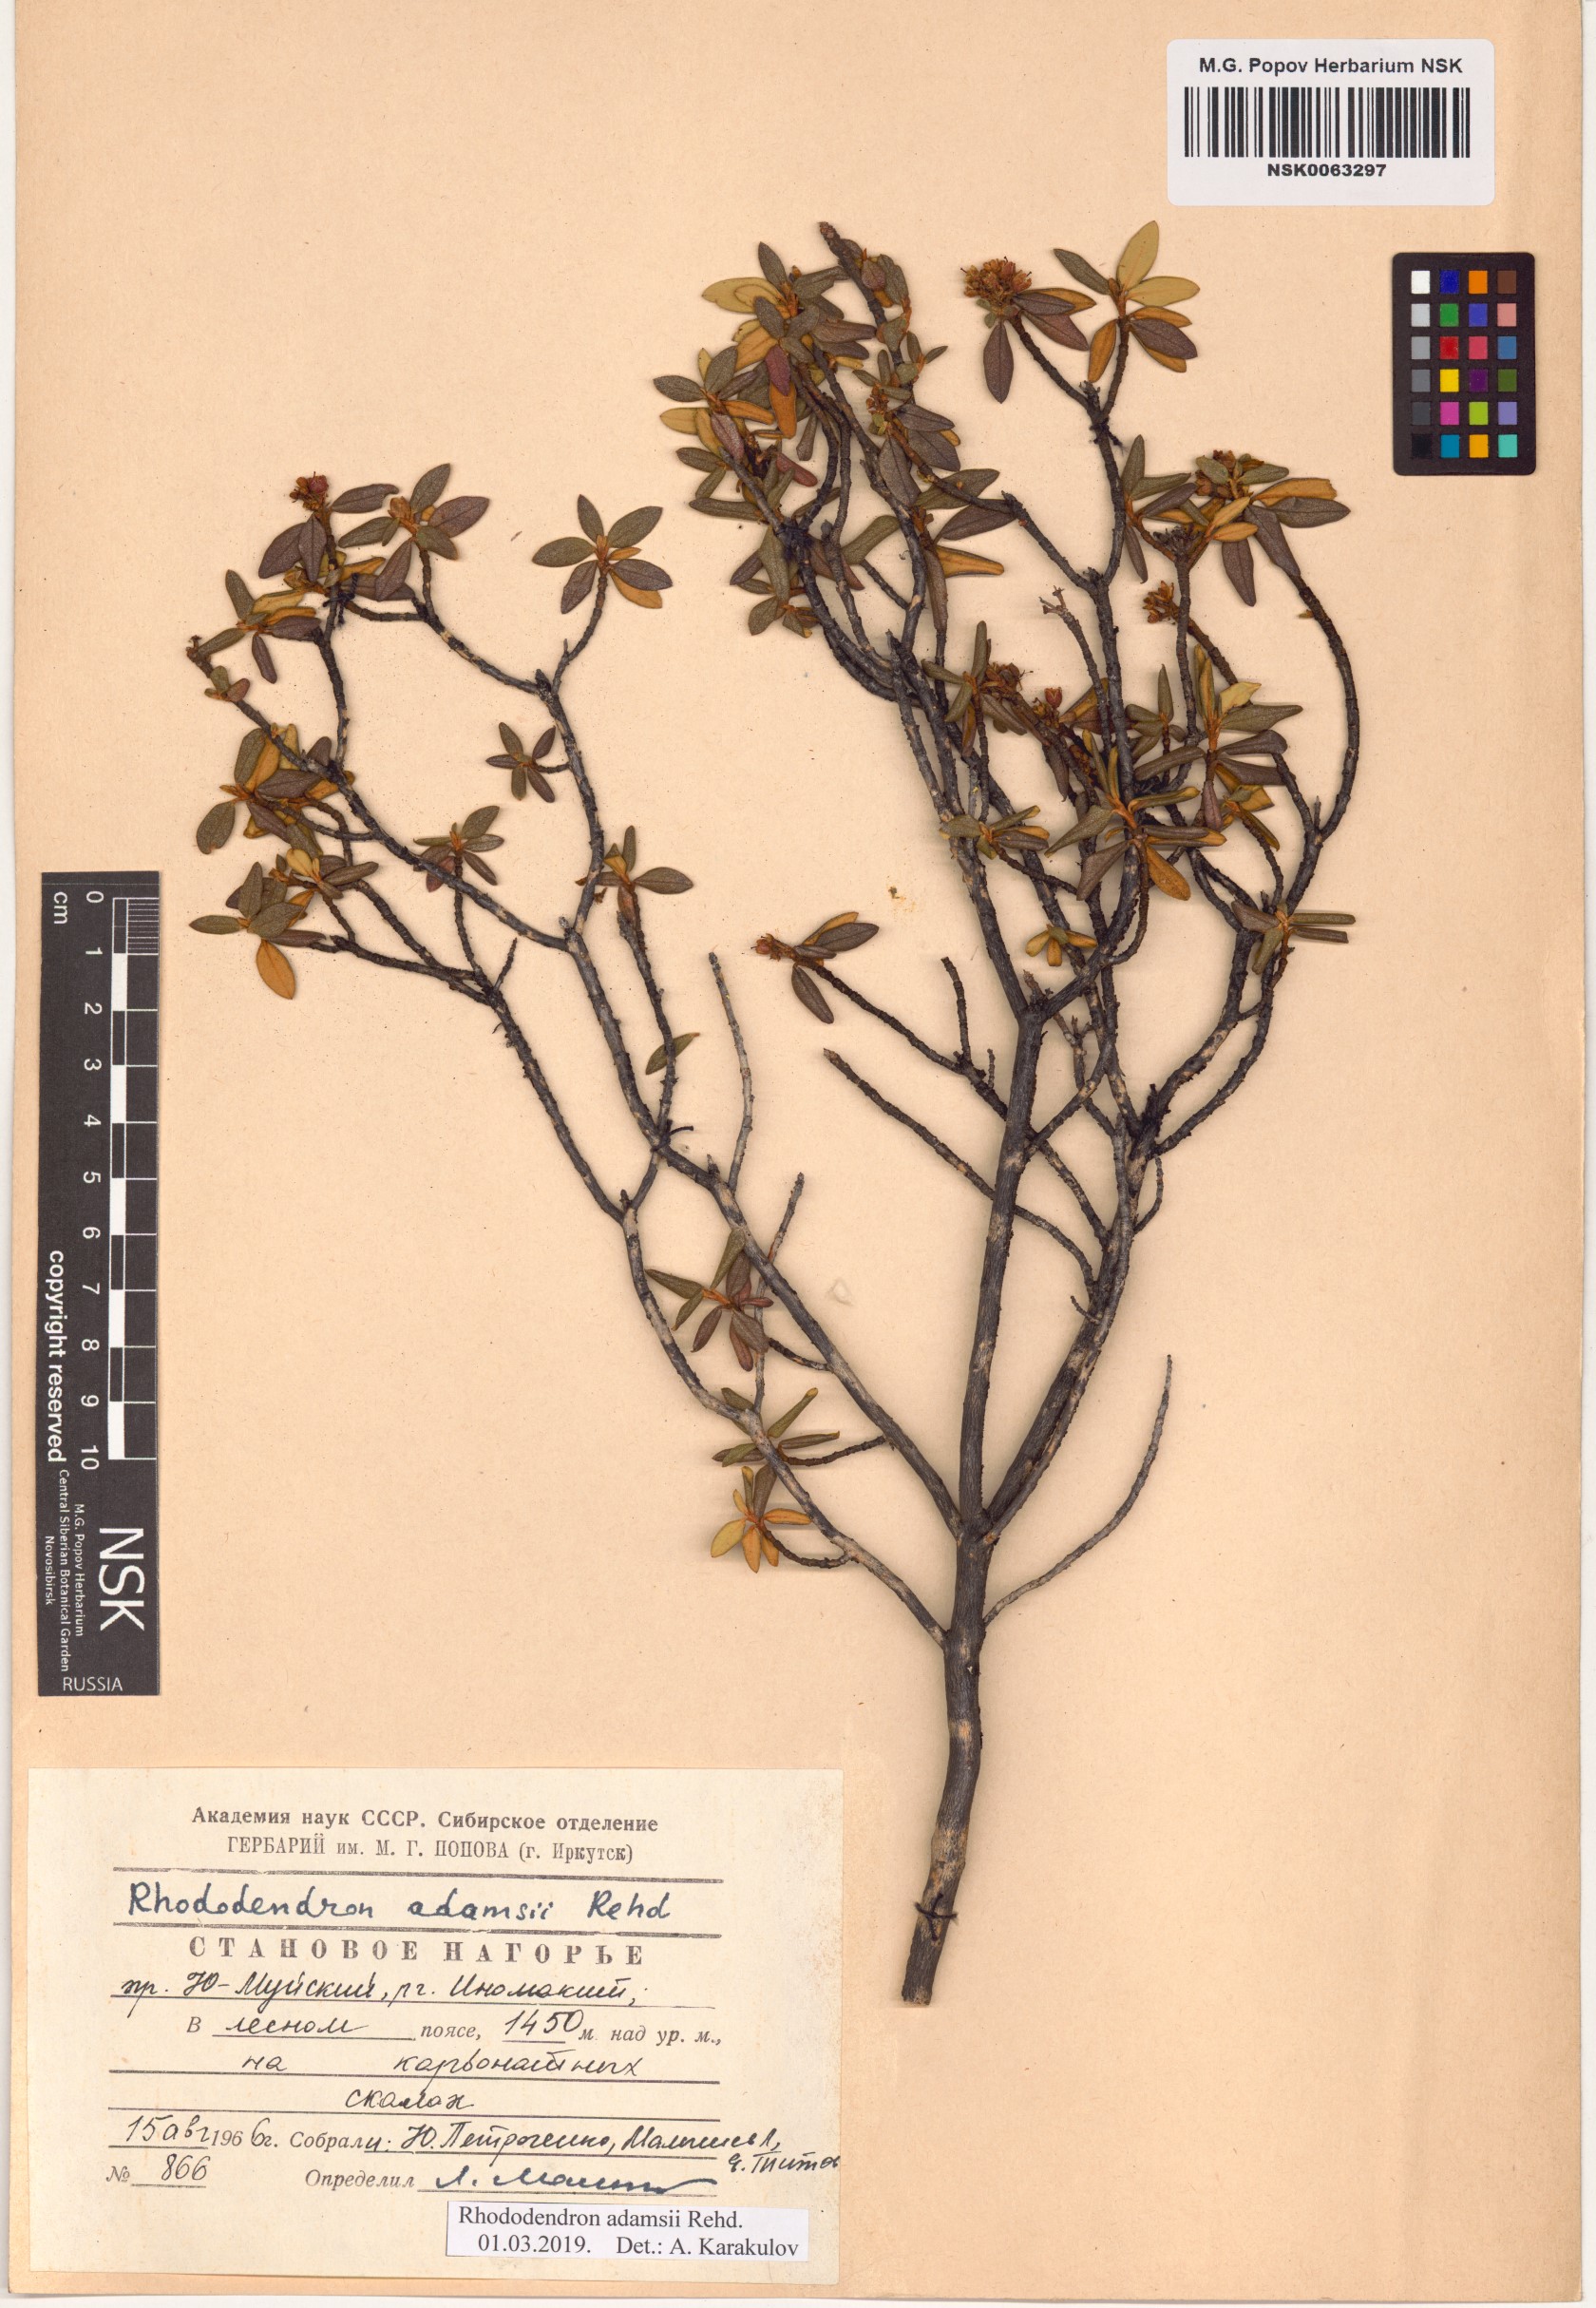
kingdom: Plantae
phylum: Tracheophyta
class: Magnoliopsida
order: Ericales
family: Ericaceae
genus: Rhododendron
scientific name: Rhododendron adamsii
